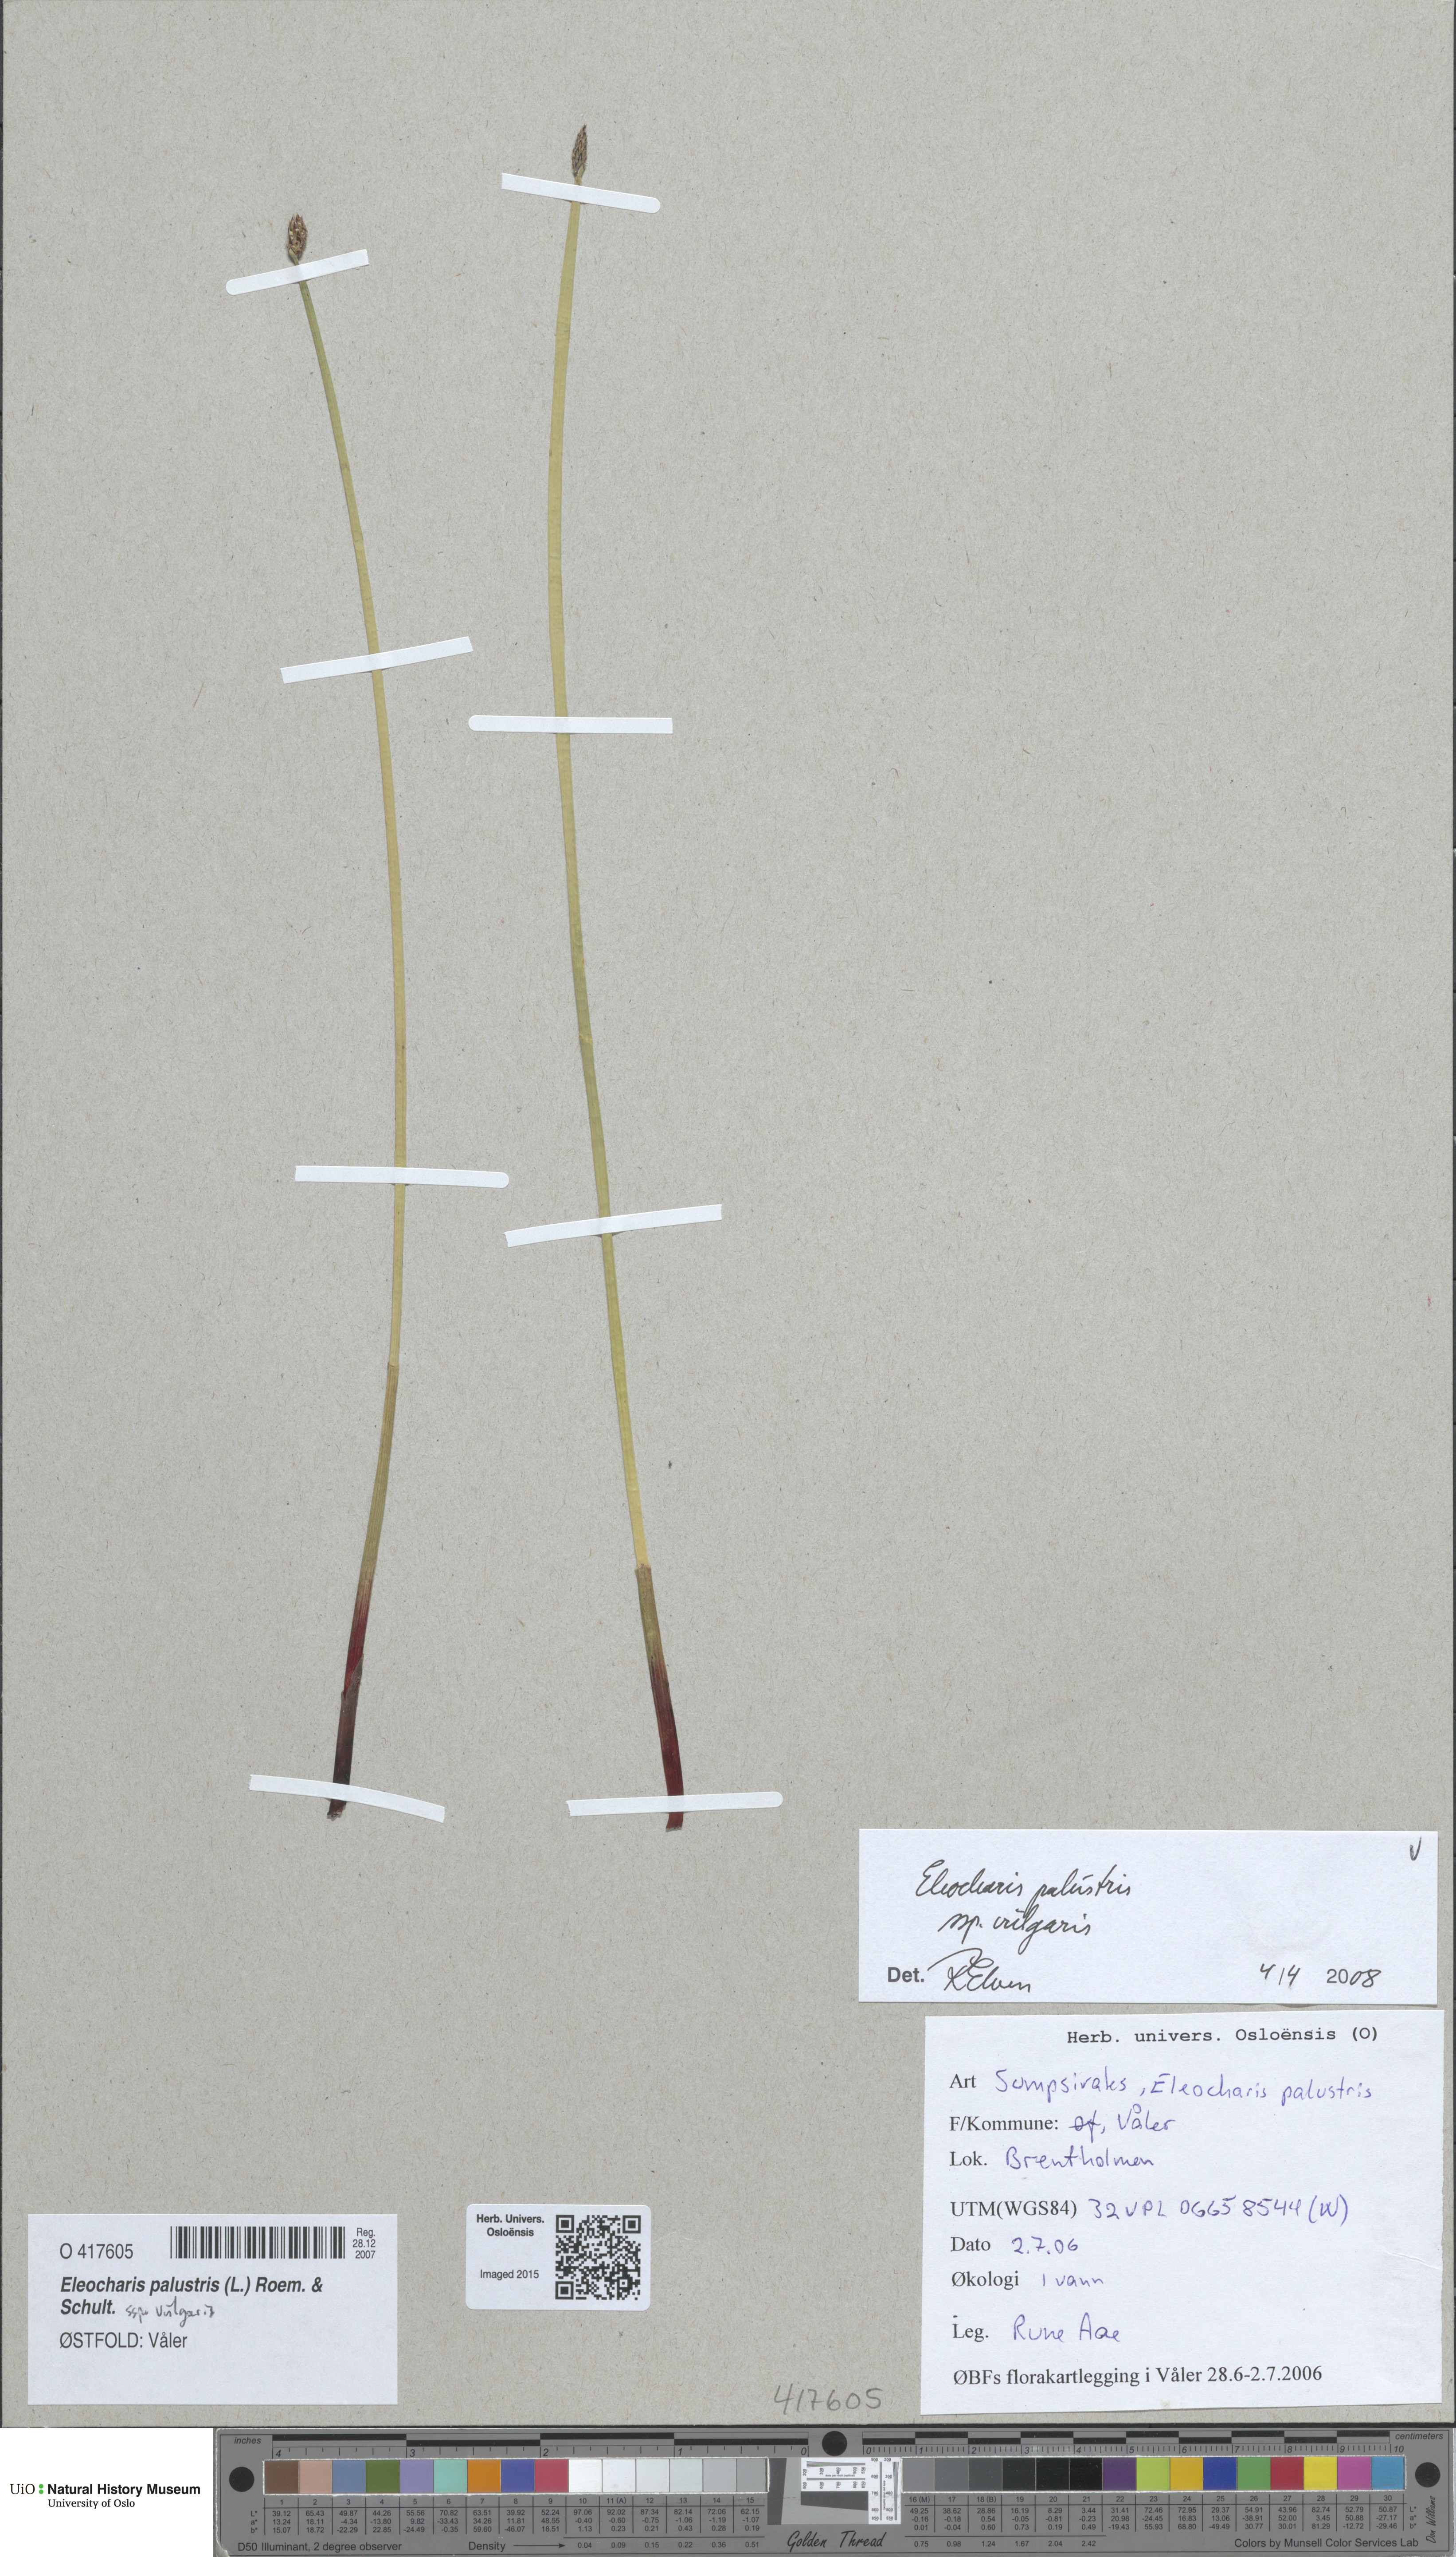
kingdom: Plantae
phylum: Tracheophyta
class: Liliopsida
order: Poales
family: Cyperaceae
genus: Eleocharis
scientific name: Eleocharis palustris
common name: Common spike-rush
